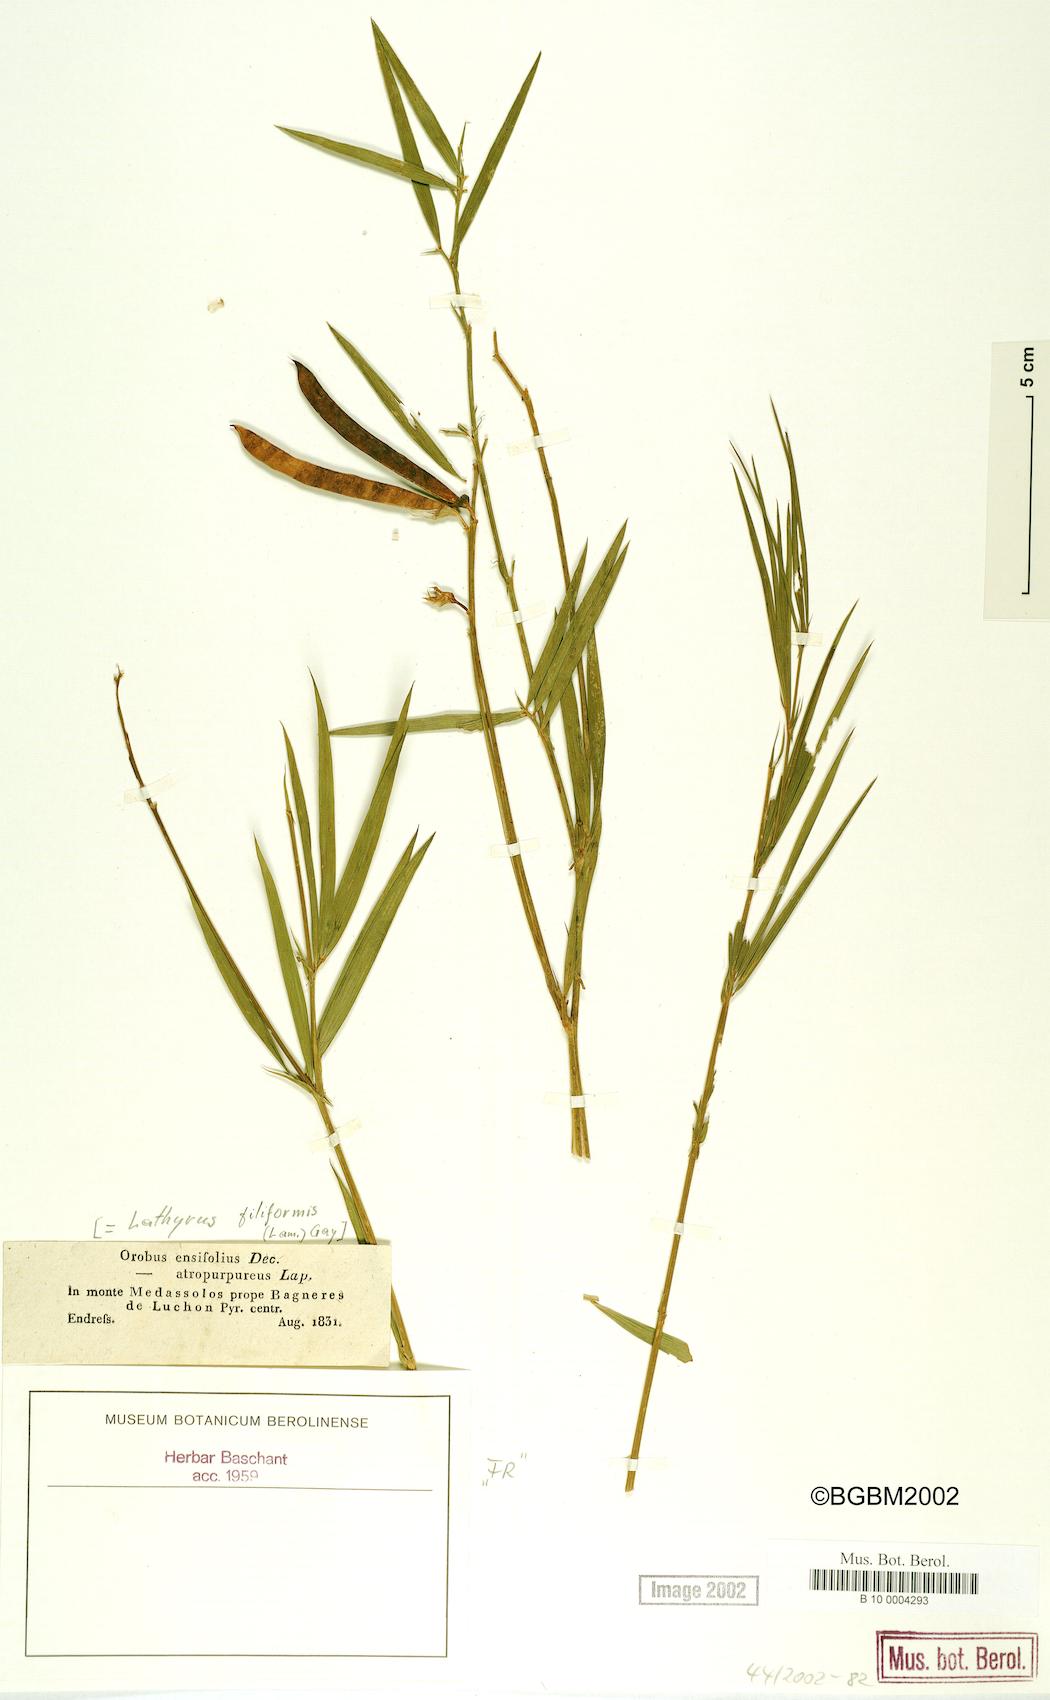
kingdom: Plantae
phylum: Tracheophyta
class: Magnoliopsida
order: Fabales
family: Fabaceae
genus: Lathyrus
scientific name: Lathyrus filiformis
